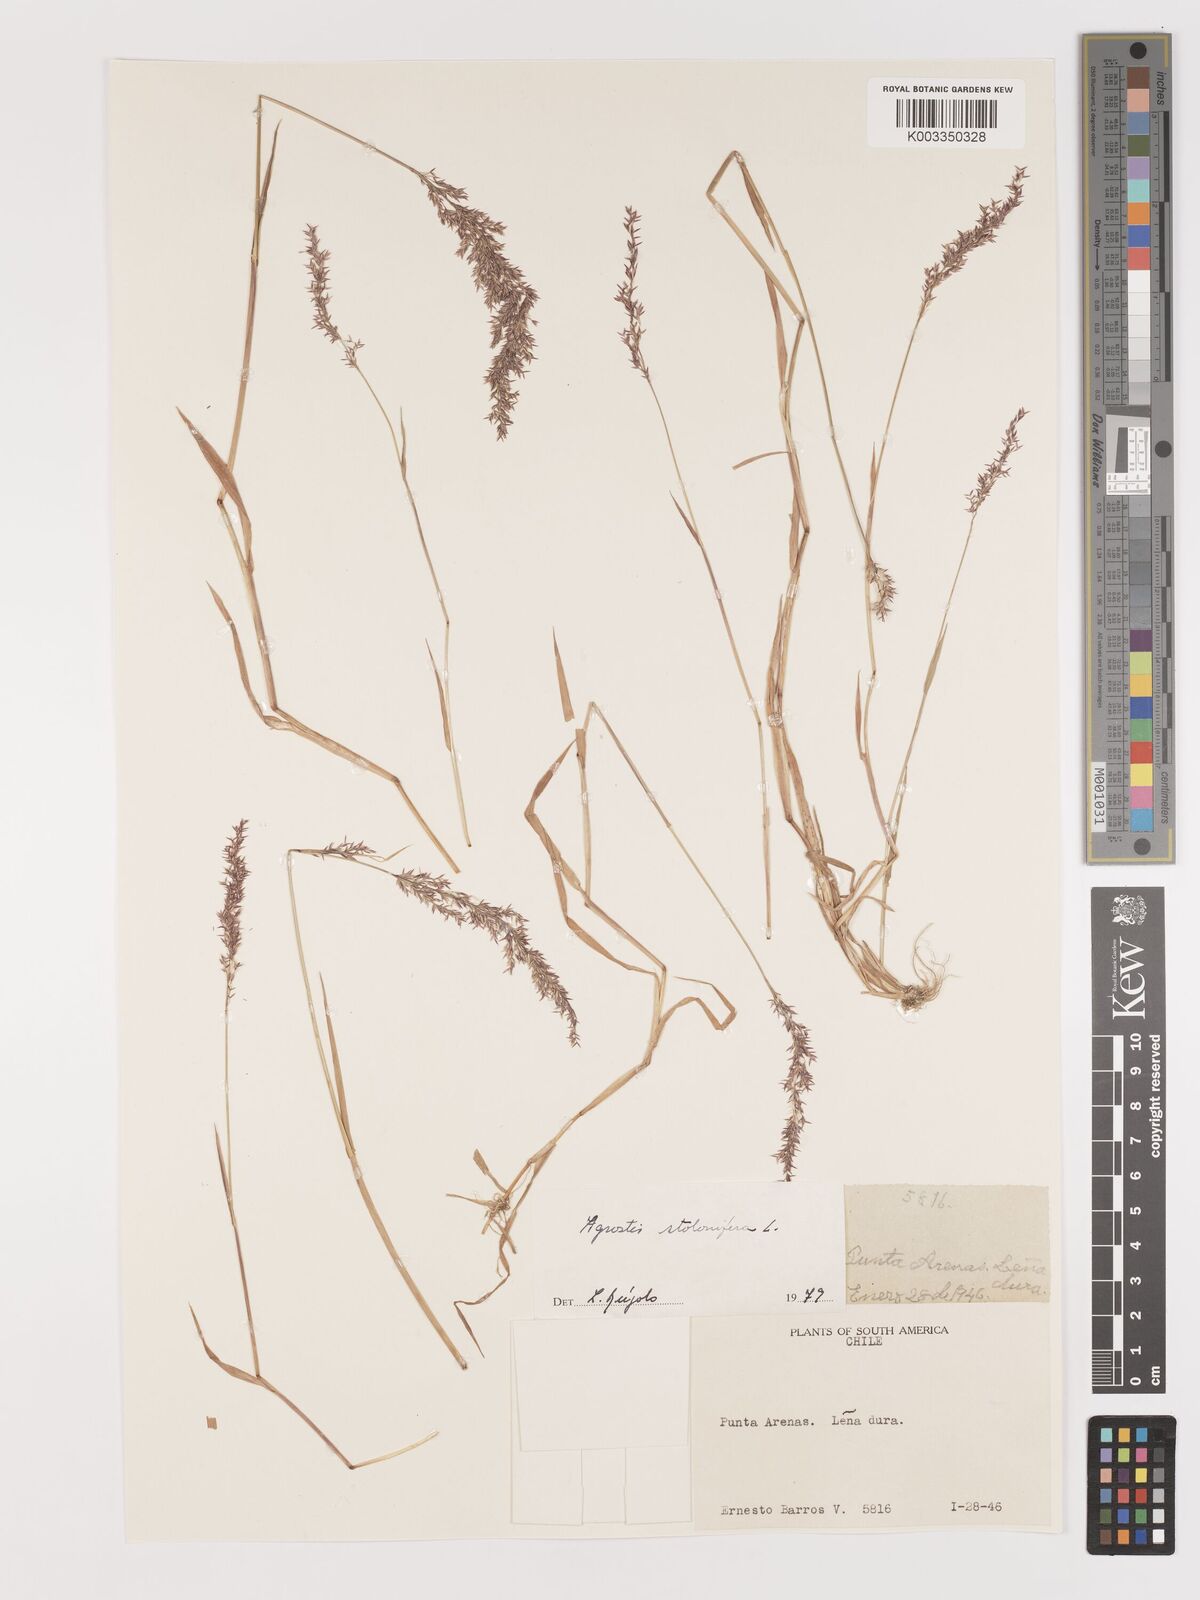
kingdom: Plantae
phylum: Tracheophyta
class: Liliopsida
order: Poales
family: Poaceae
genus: Agrostis
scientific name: Agrostis
